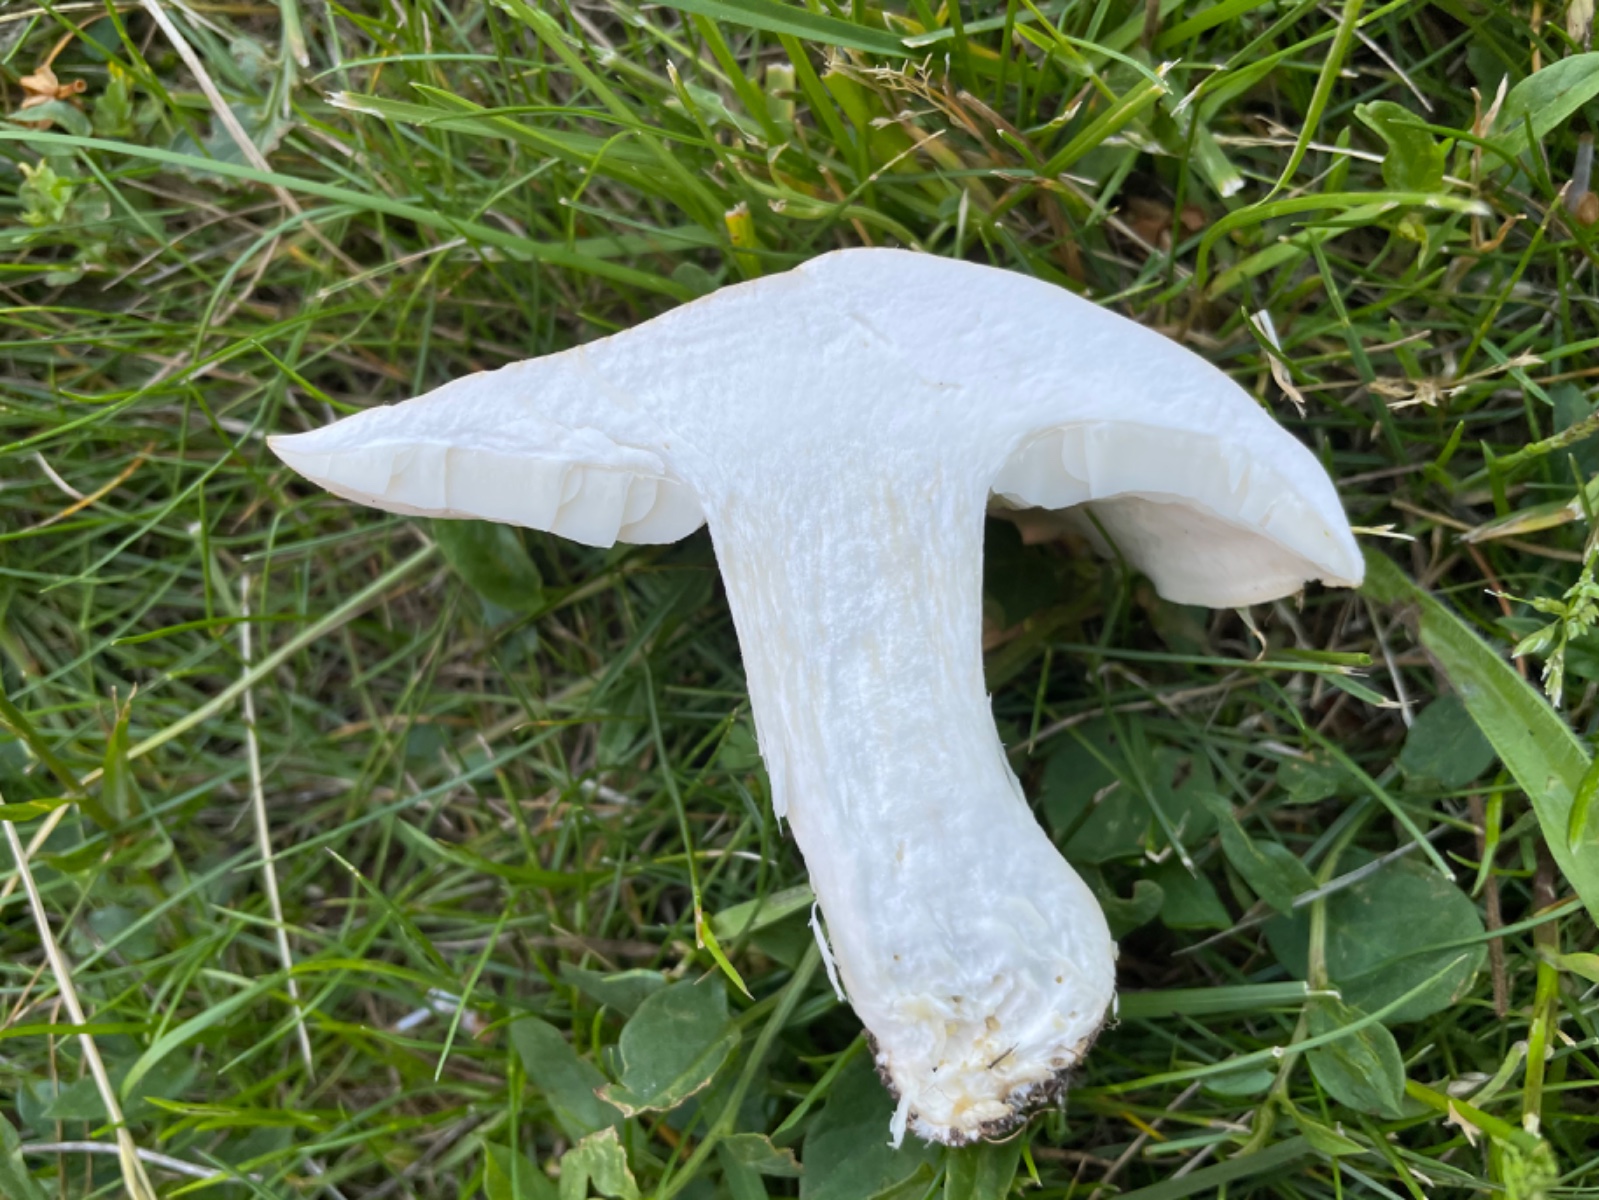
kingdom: Fungi
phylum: Basidiomycota
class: Agaricomycetes
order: Agaricales
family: Lyophyllaceae
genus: Calocybe
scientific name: Calocybe gambosa
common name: vårmusseron
